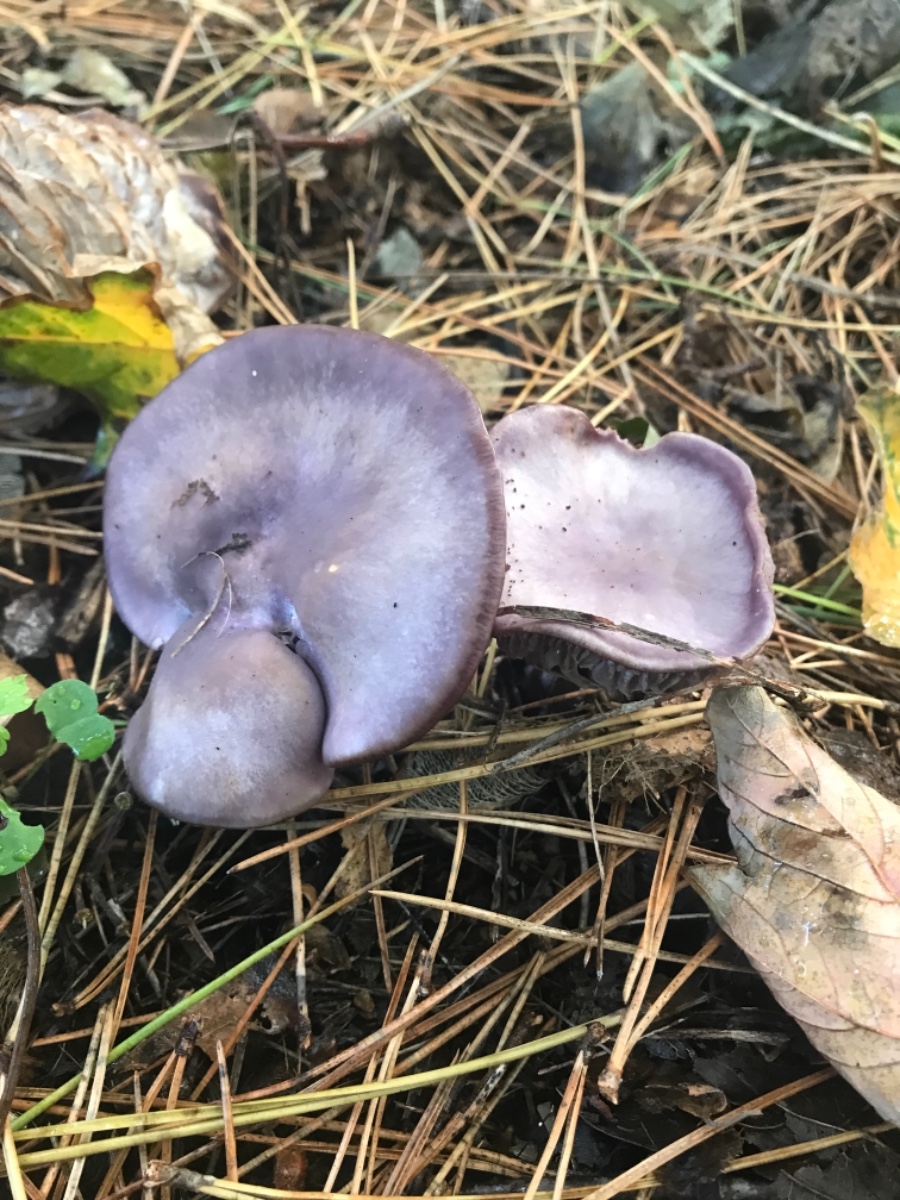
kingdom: Fungi
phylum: Basidiomycota
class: Agaricomycetes
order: Agaricales
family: Tricholomataceae
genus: Lepista
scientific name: Lepista nuda
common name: violet hekseringshat
